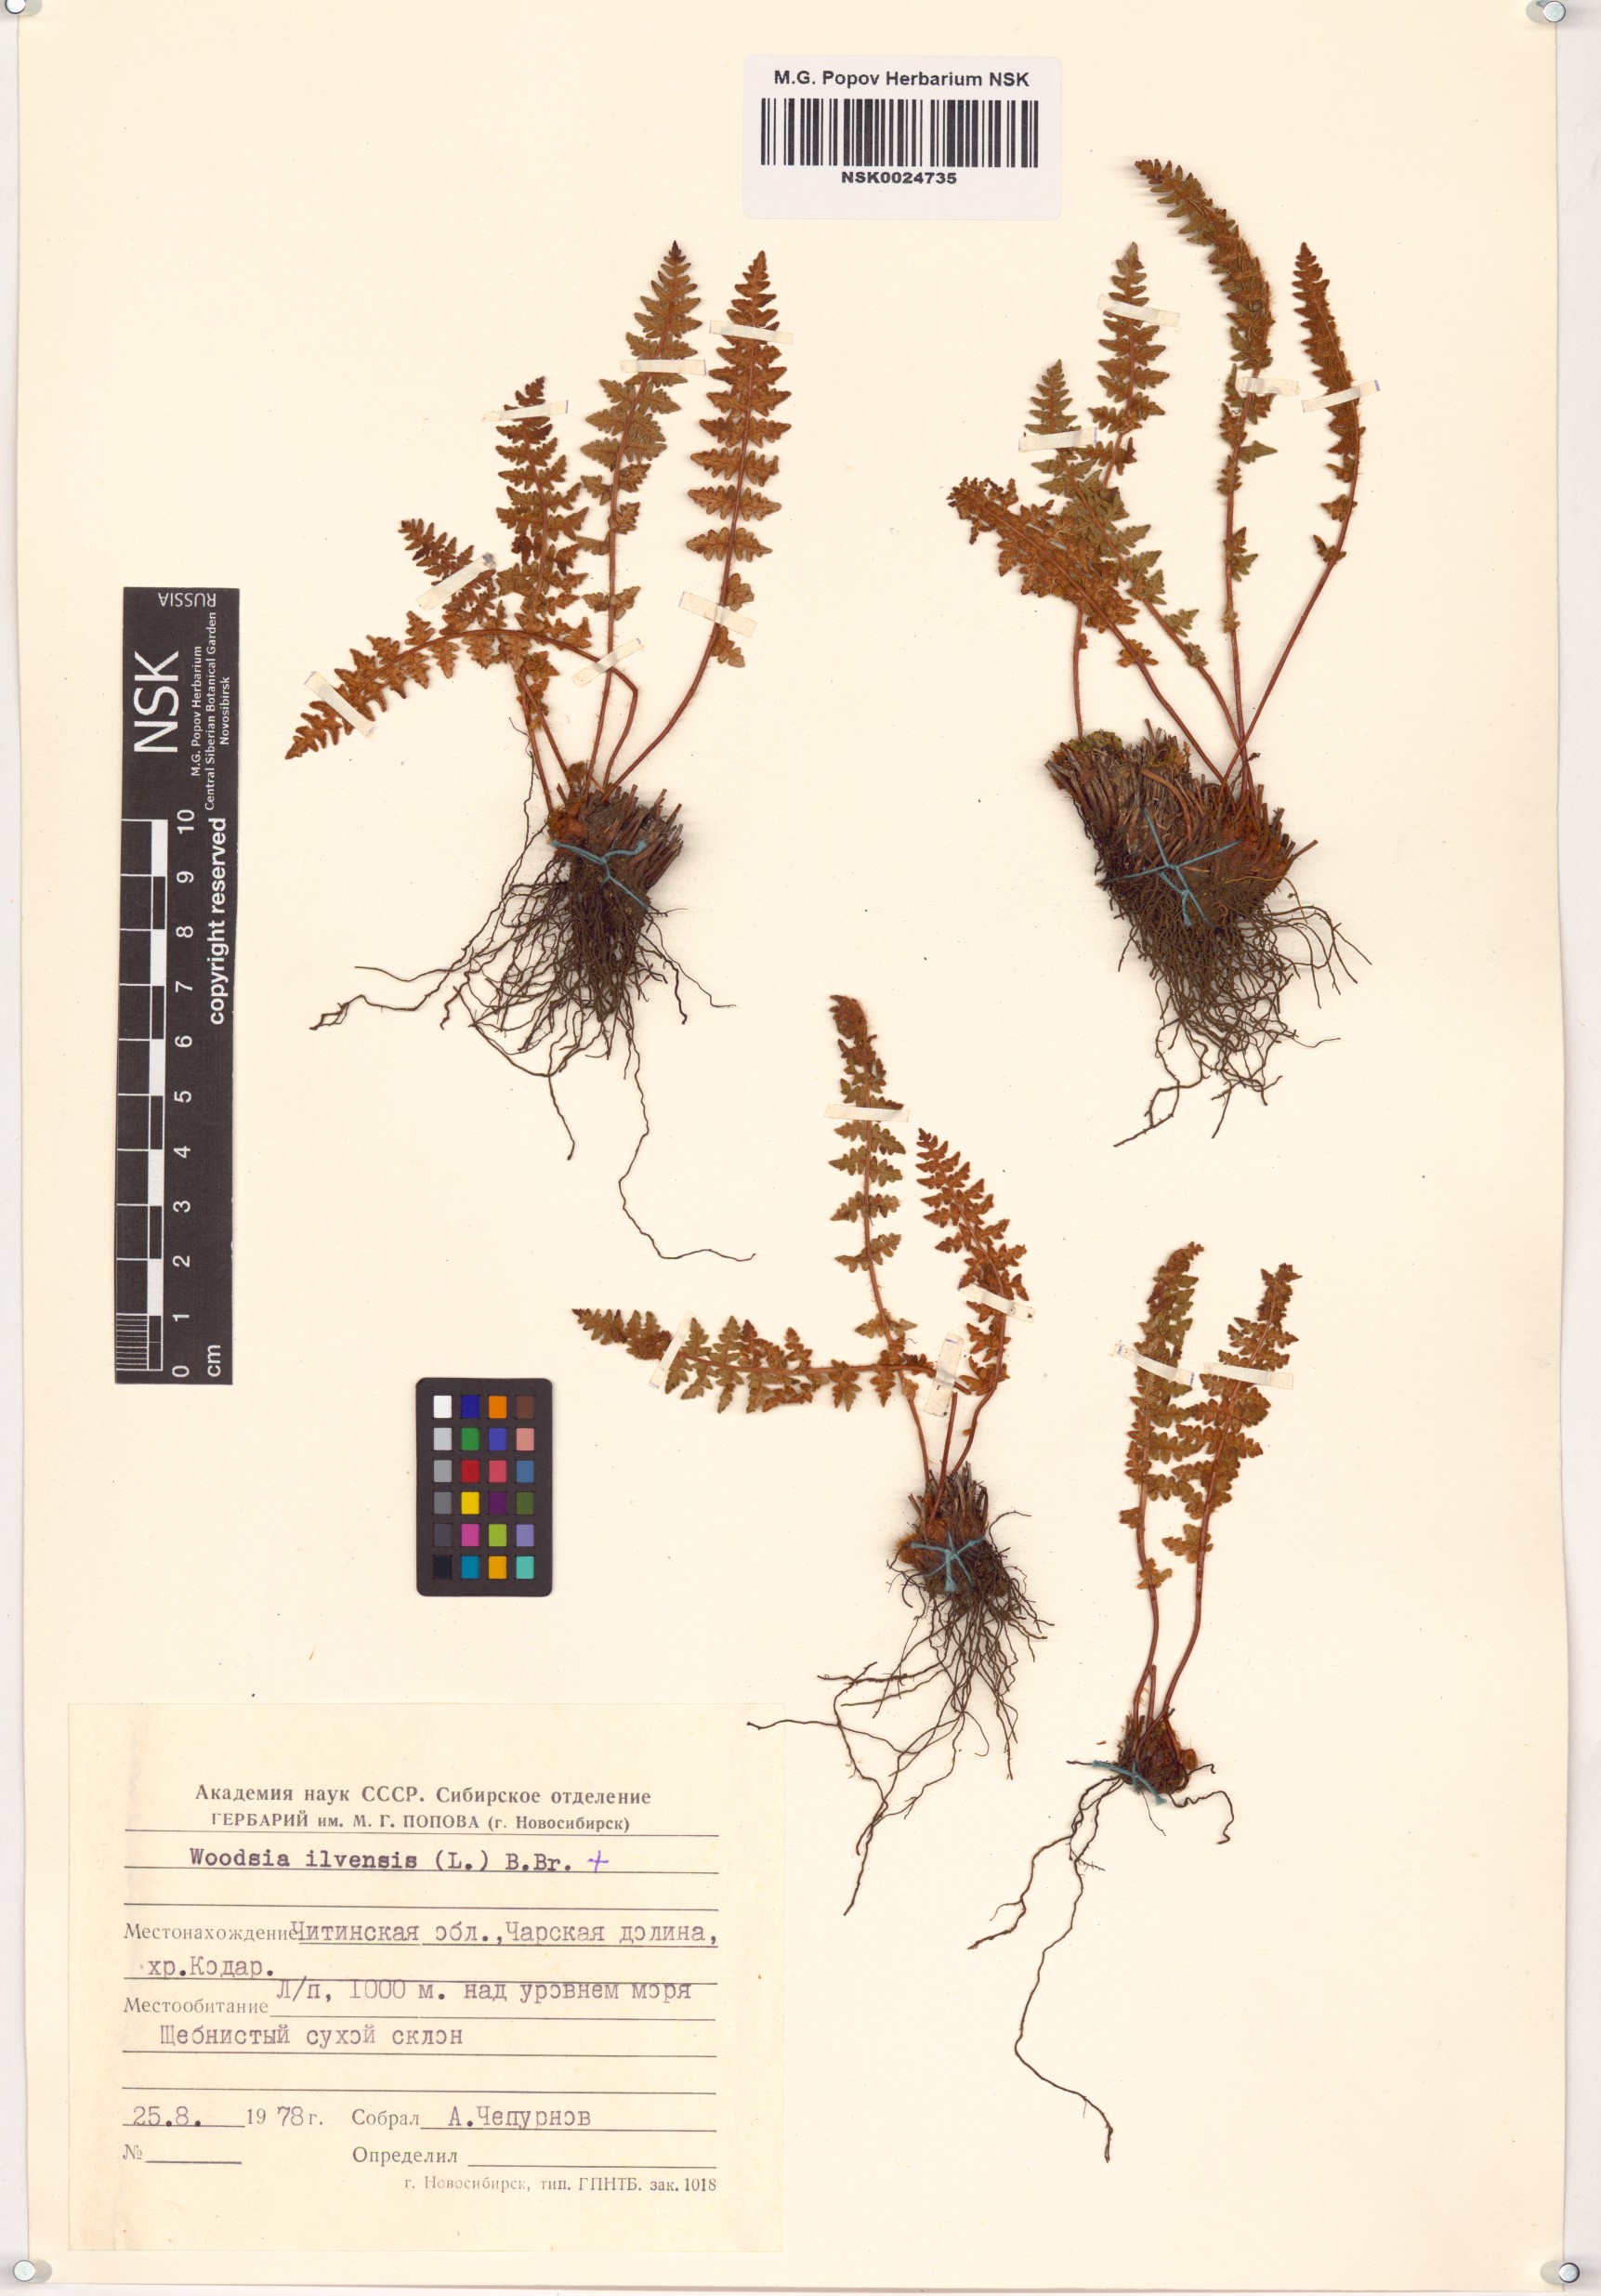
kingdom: Plantae
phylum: Tracheophyta
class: Polypodiopsida
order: Polypodiales
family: Woodsiaceae
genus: Woodsia
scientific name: Woodsia ilvensis
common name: Fragrant woodsia
